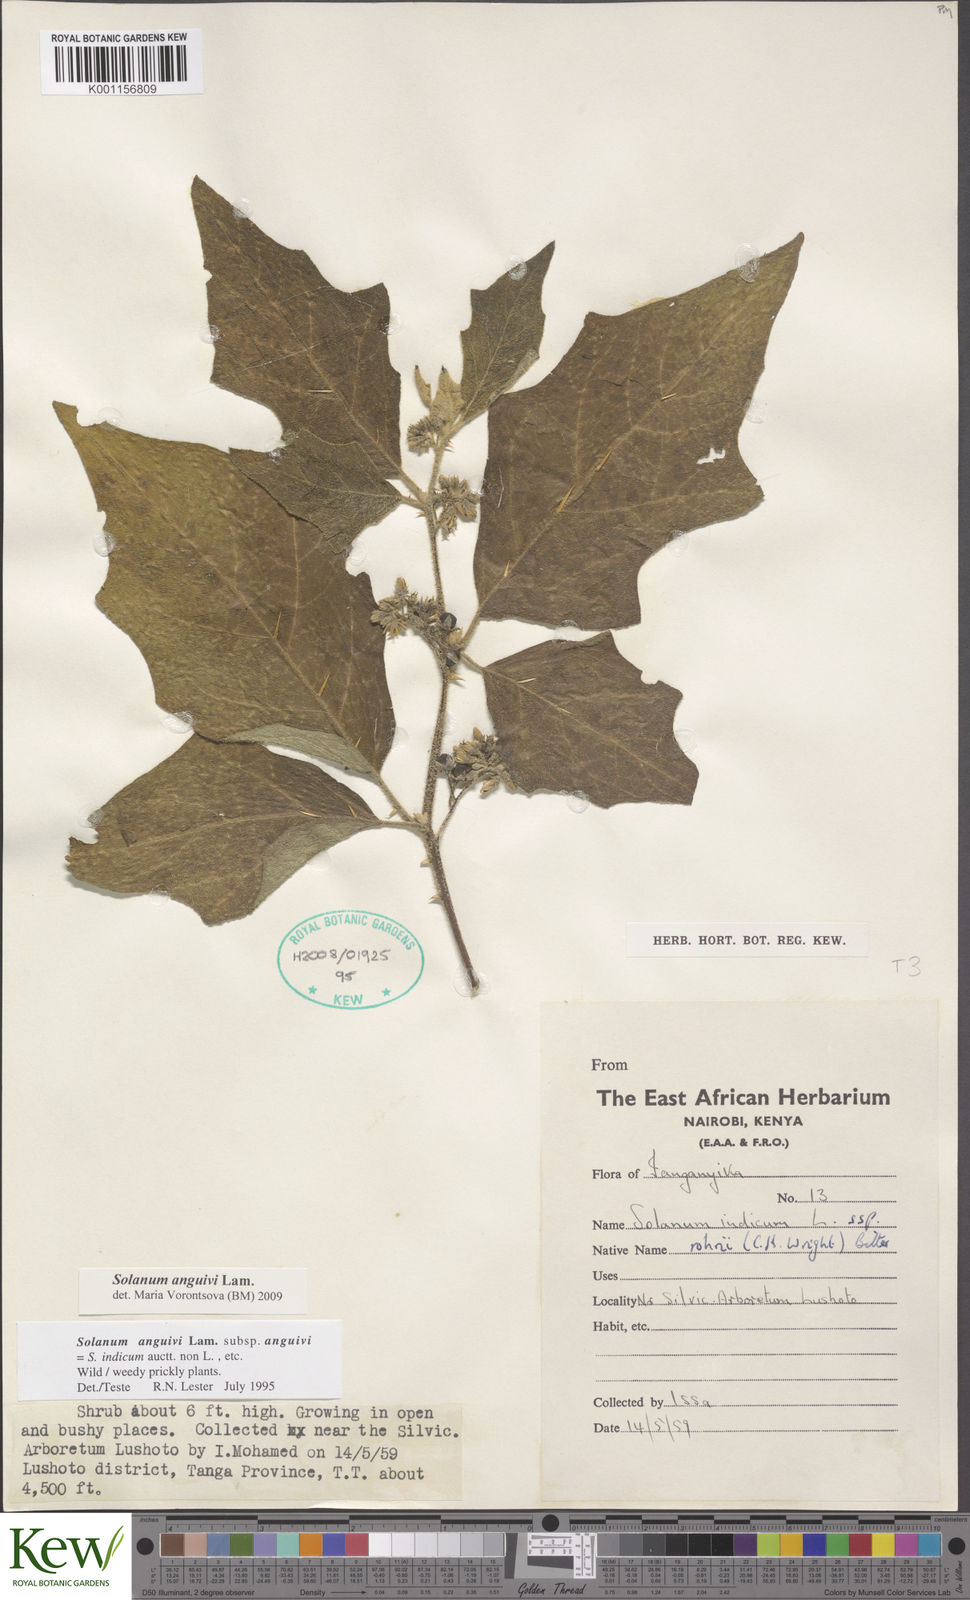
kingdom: Plantae
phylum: Tracheophyta
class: Magnoliopsida
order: Solanales
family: Solanaceae
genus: Solanum
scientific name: Solanum anguivi
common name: Forest bitterberry
